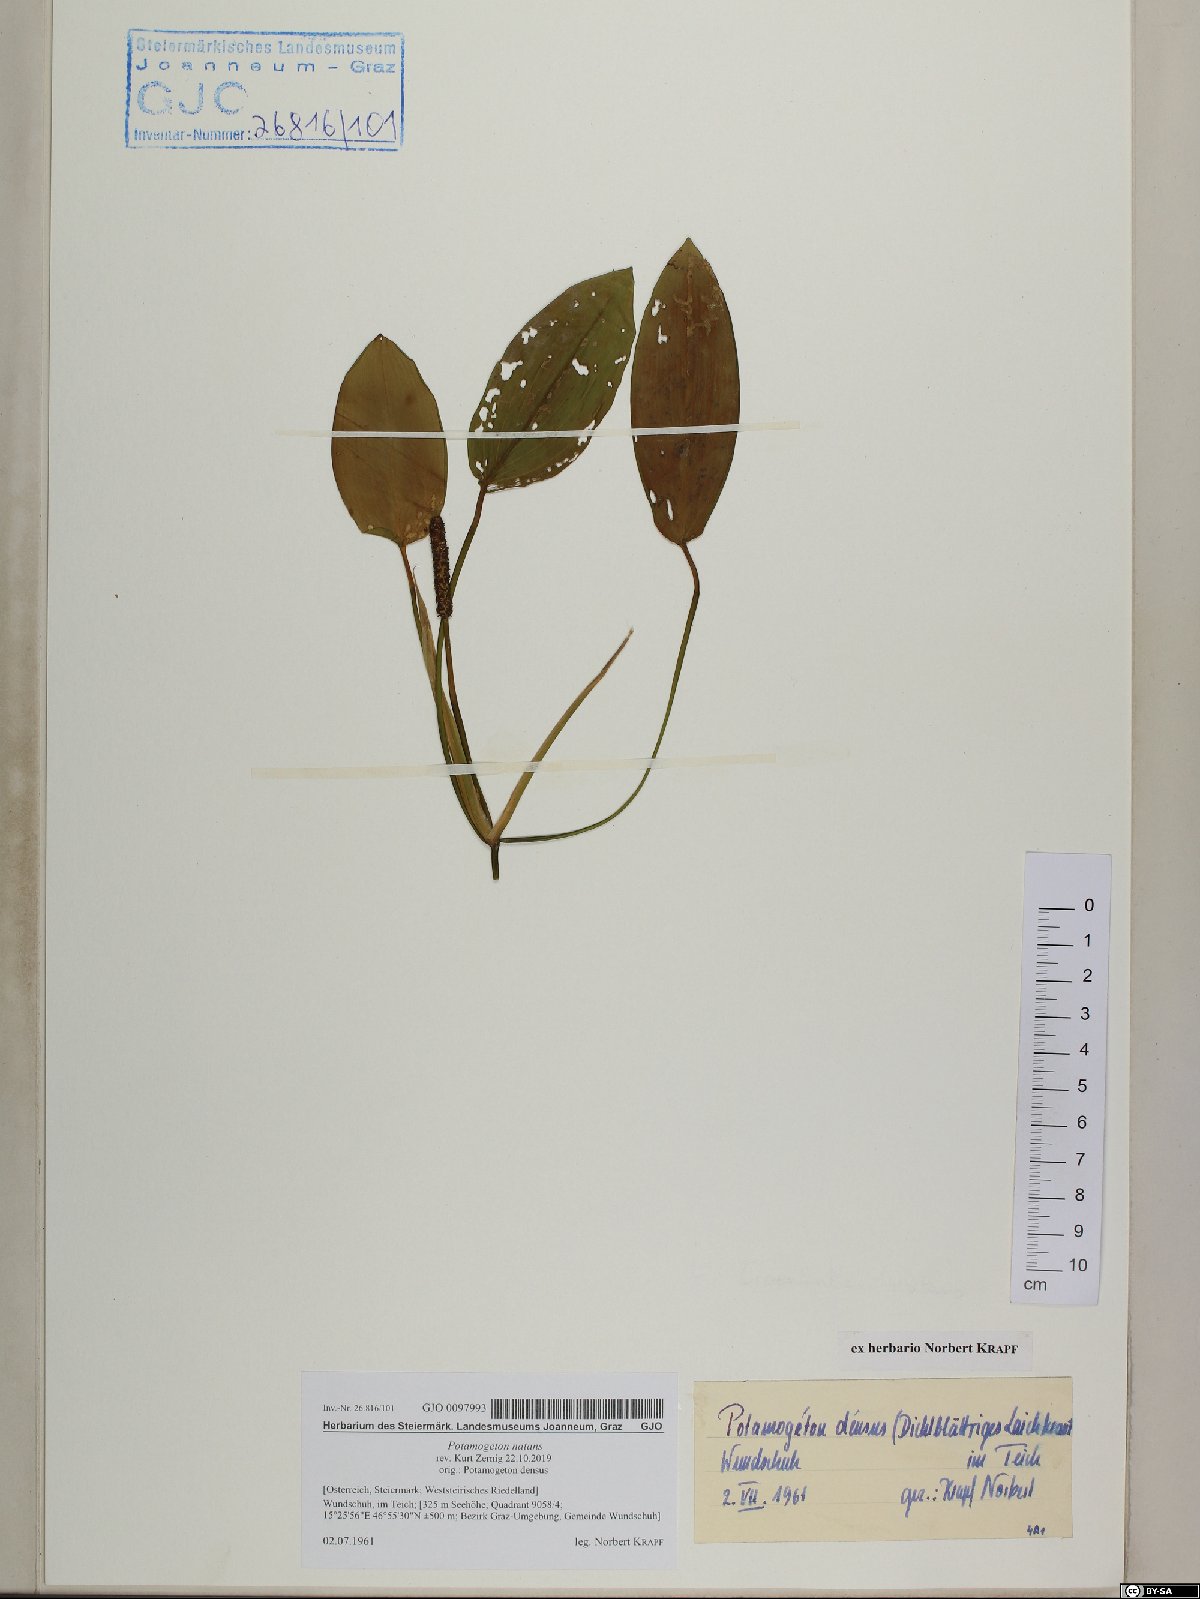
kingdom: Plantae
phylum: Tracheophyta
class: Liliopsida
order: Alismatales
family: Potamogetonaceae
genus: Potamogeton
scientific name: Potamogeton natans
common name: Broad-leaved pondweed
